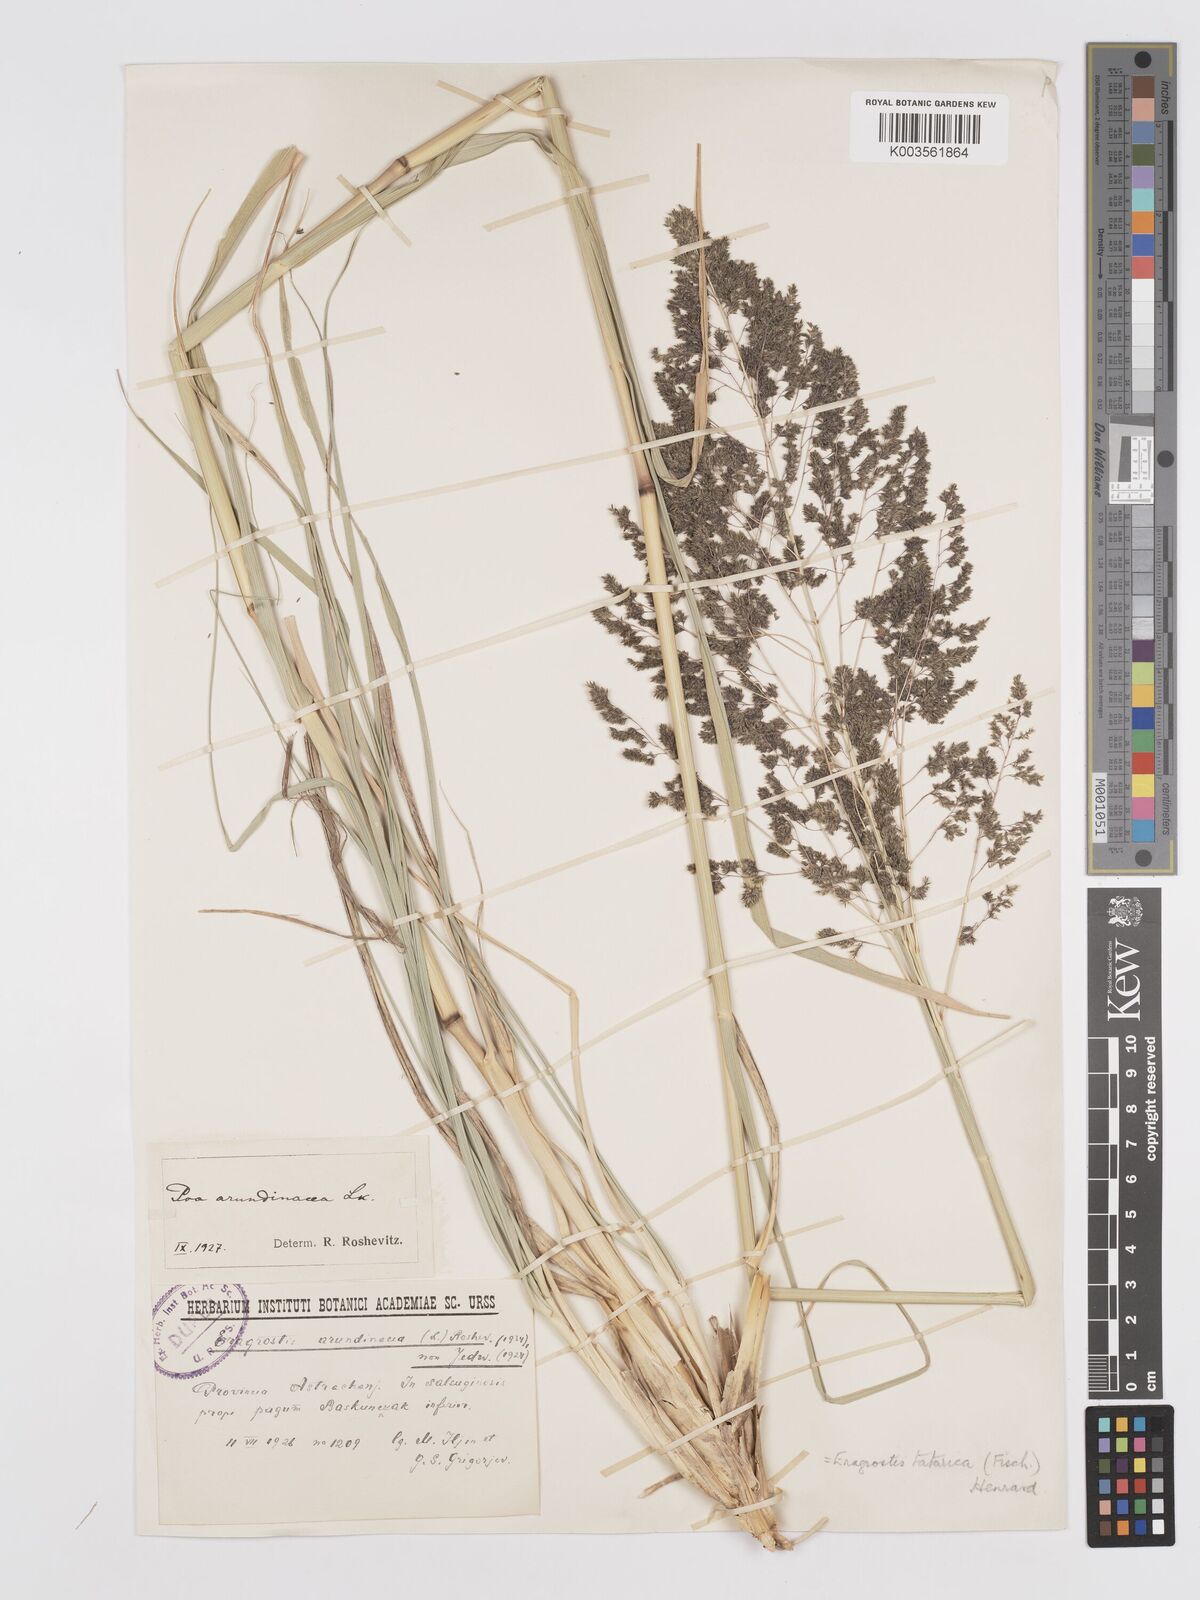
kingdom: Plantae
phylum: Tracheophyta
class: Liliopsida
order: Poales
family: Poaceae
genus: Eragrostis
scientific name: Eragrostis collina
